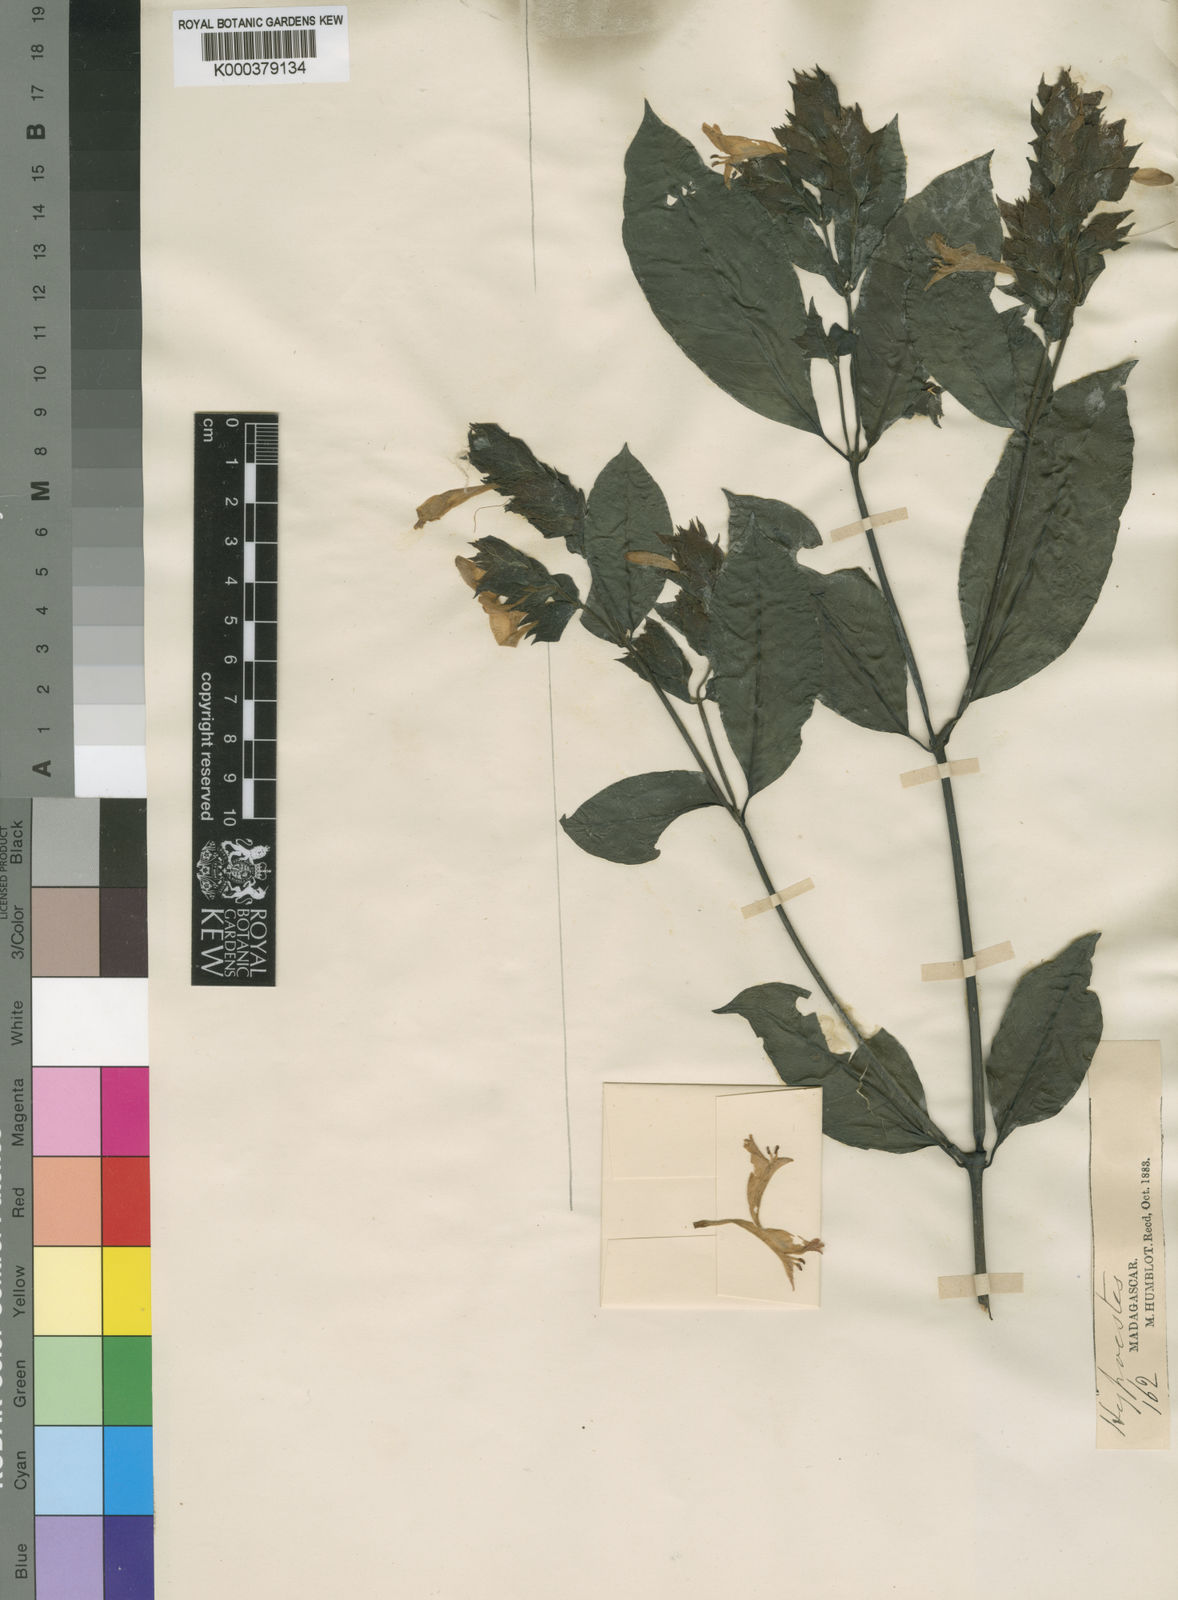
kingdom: Plantae
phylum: Tracheophyta
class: Magnoliopsida
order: Lamiales
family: Acanthaceae
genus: Hypoestes
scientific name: Hypoestes multispicata
